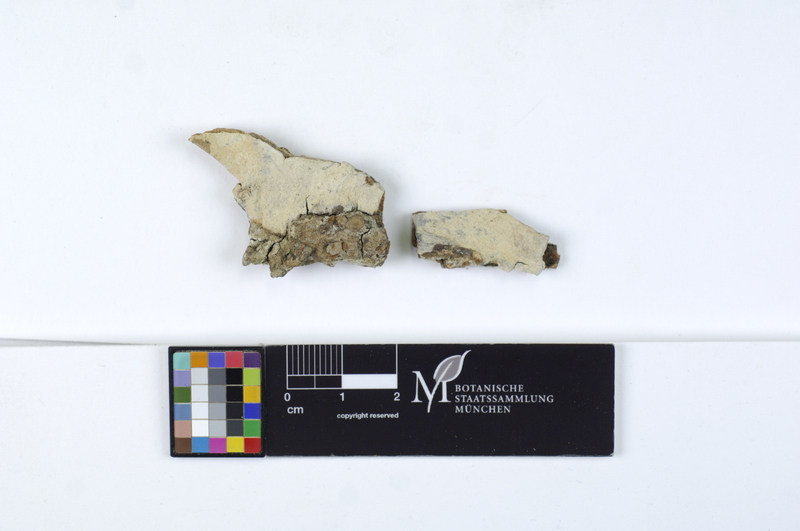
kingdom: Fungi
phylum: Basidiomycota
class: Agaricomycetes
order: Agaricales
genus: Dendrothele
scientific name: Dendrothele acerina
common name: Maple whitewash
